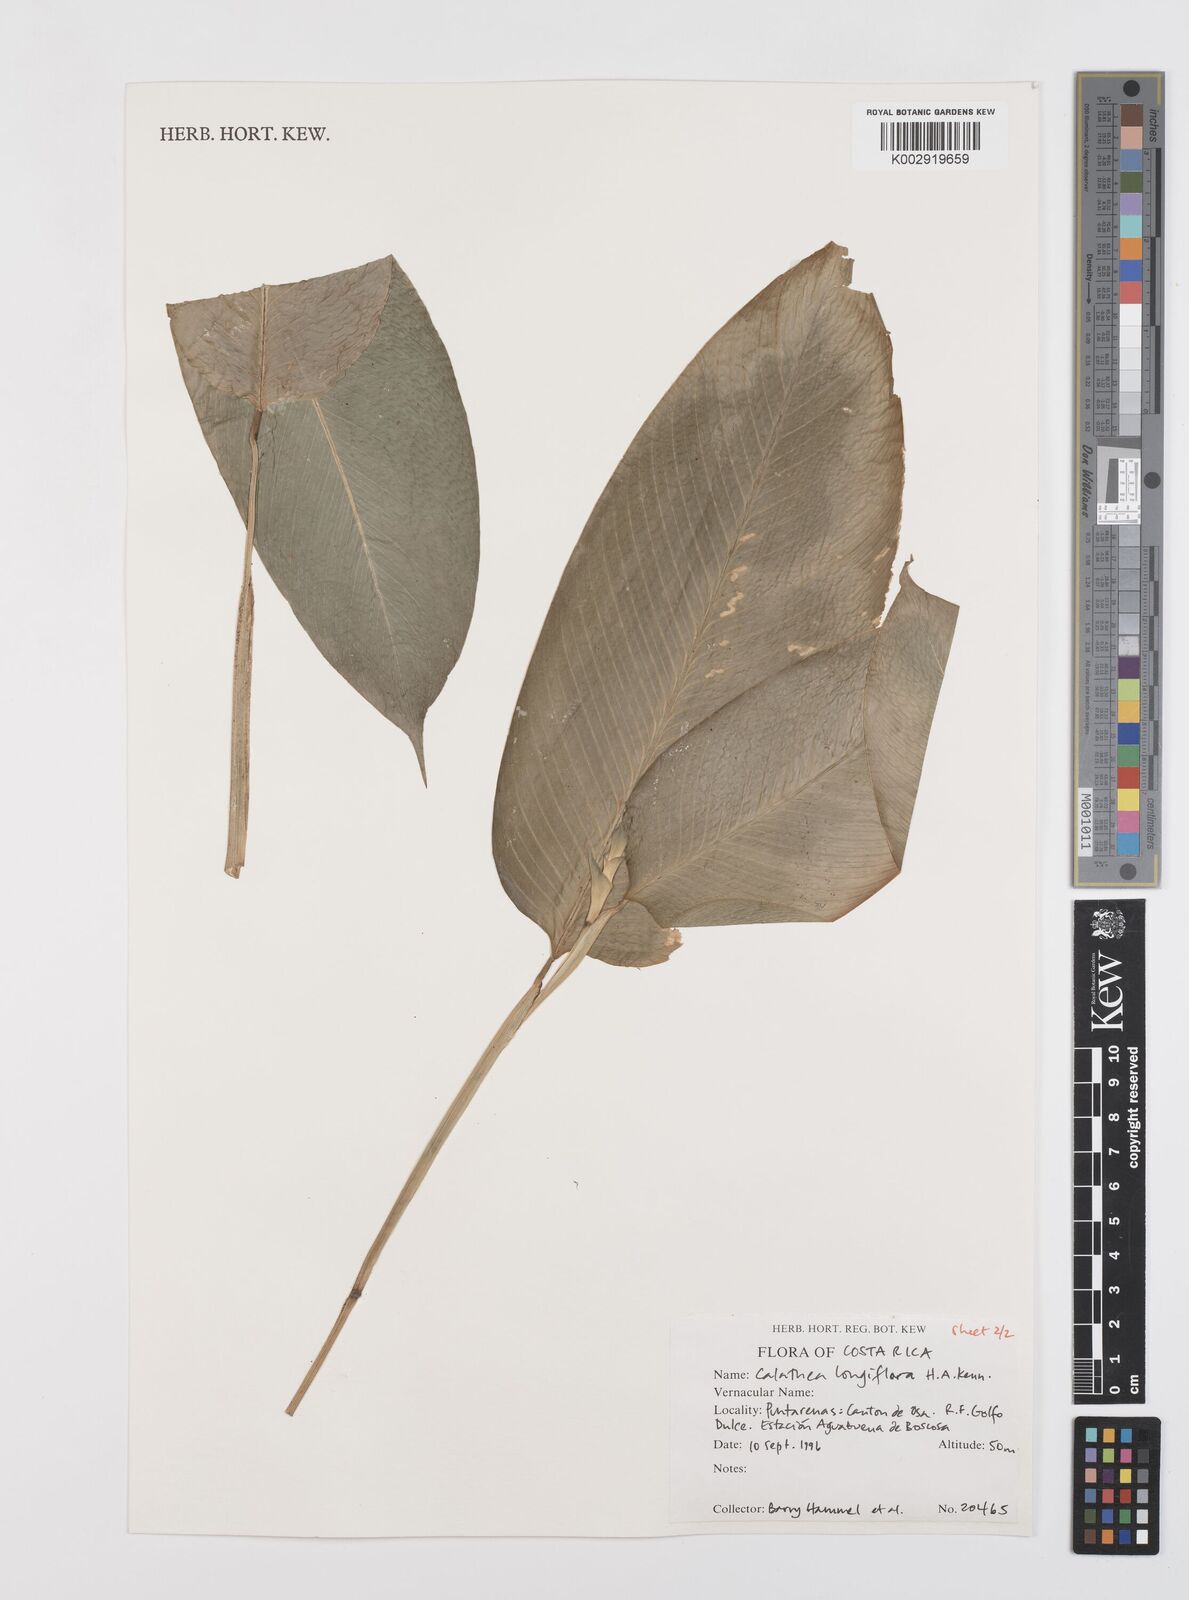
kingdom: Plantae
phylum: Tracheophyta
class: Liliopsida
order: Zingiberales
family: Marantaceae
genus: Goeppertia
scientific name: Goeppertia longiflora
